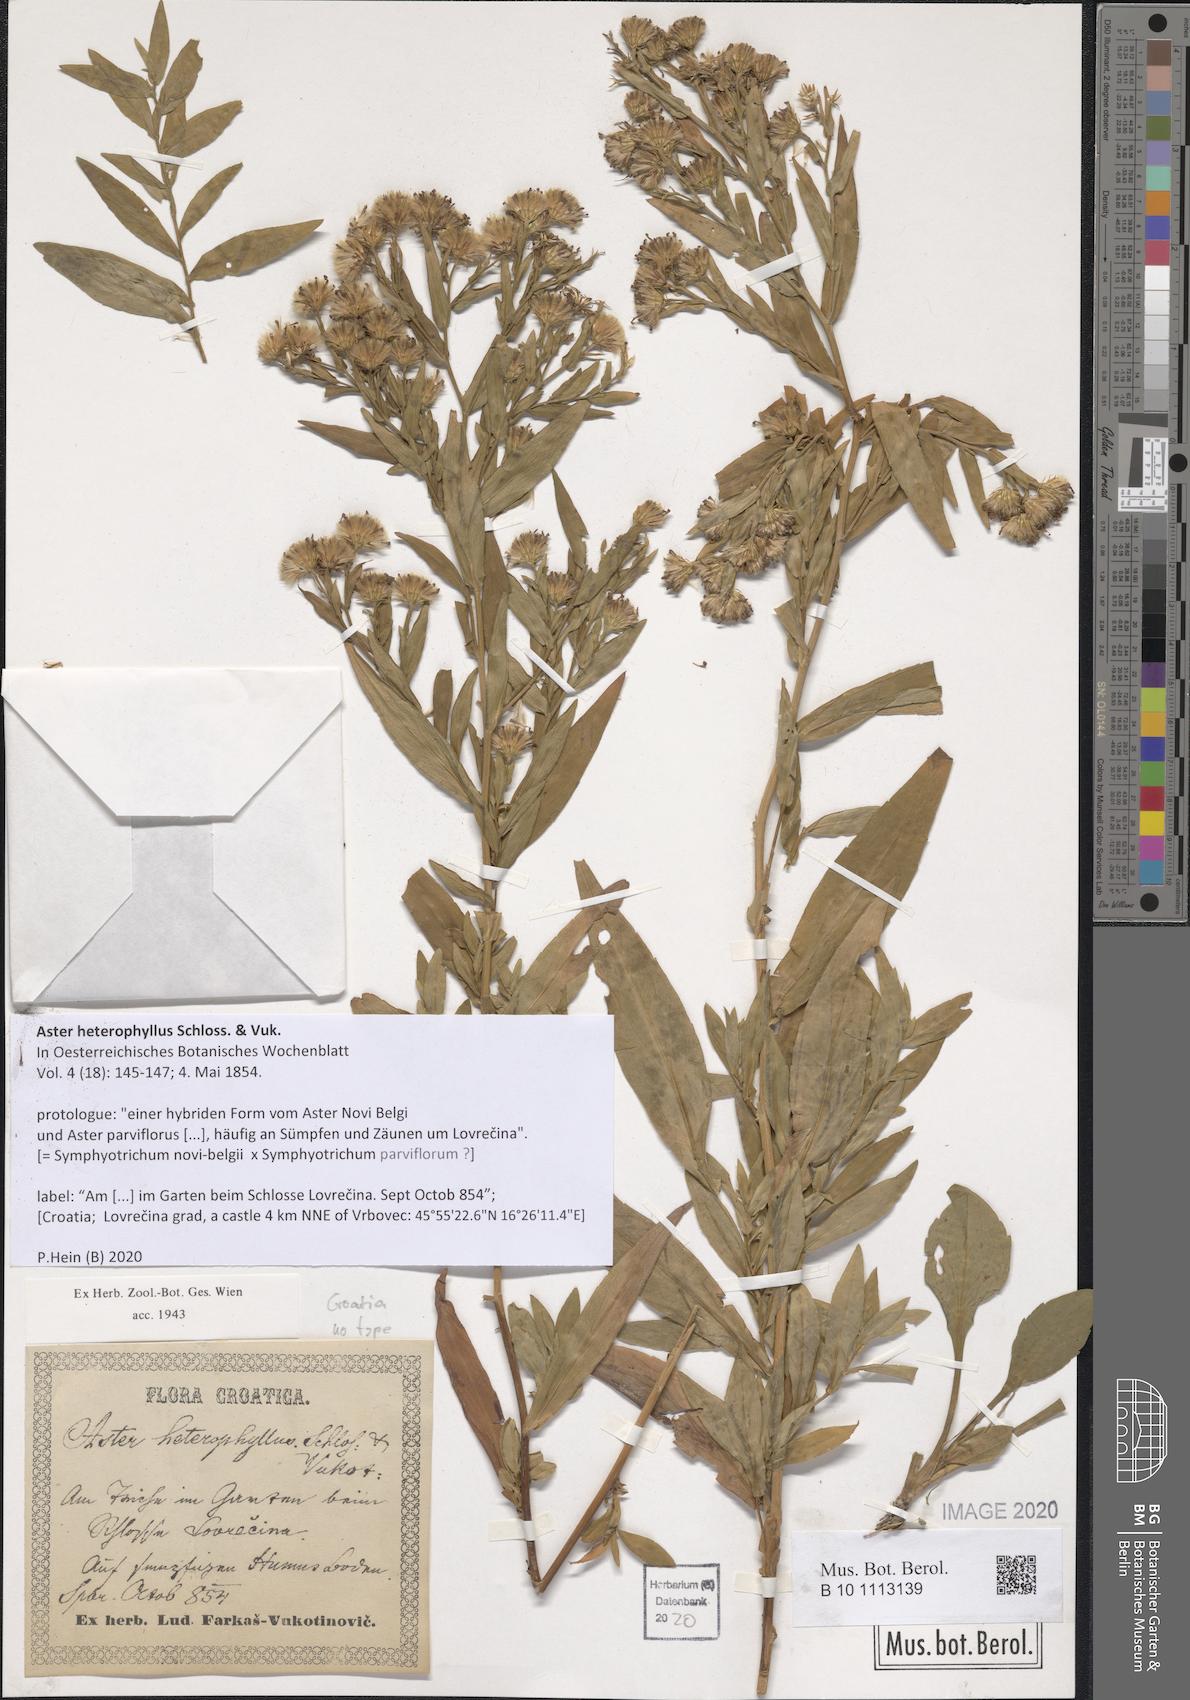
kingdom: Plantae
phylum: Tracheophyta
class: Magnoliopsida
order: Asterales
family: Asteraceae
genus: Aster
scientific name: Aster heterophyllus
